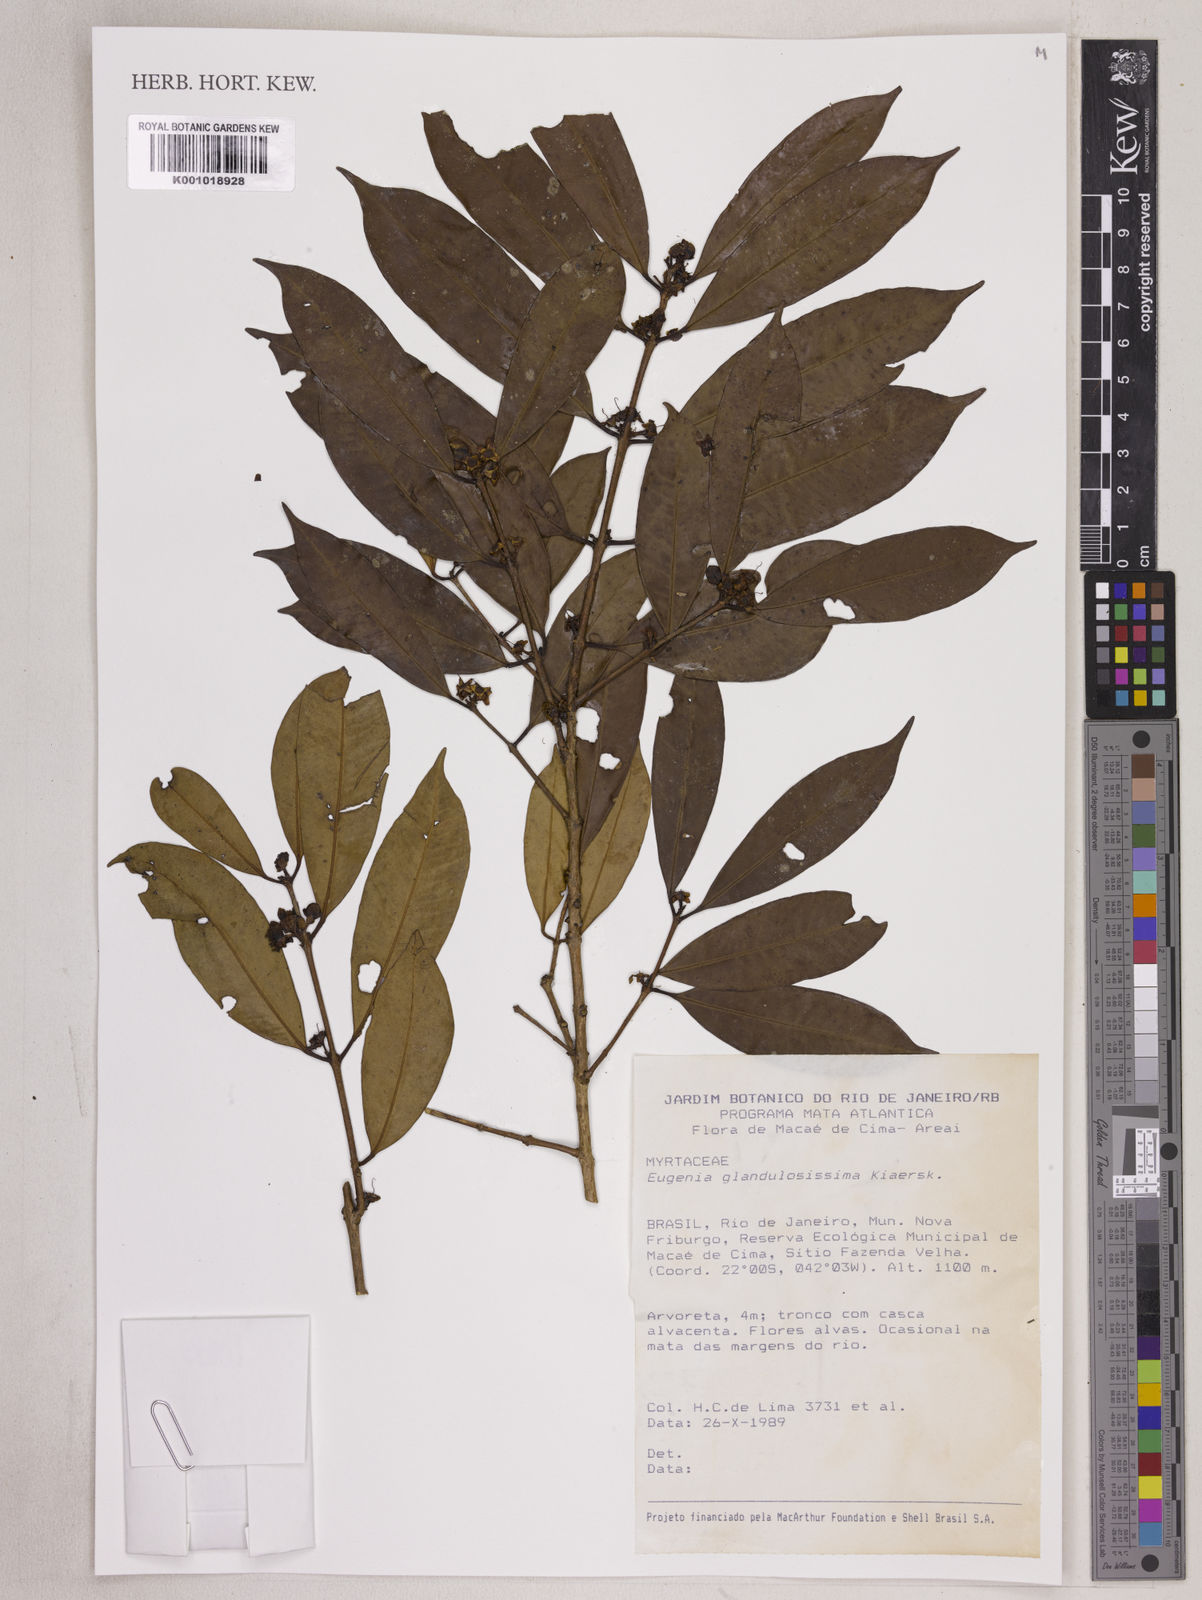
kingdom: Plantae
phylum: Tracheophyta
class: Magnoliopsida
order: Myrtales
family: Myrtaceae
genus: Eugenia
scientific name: Eugenia candolleana
